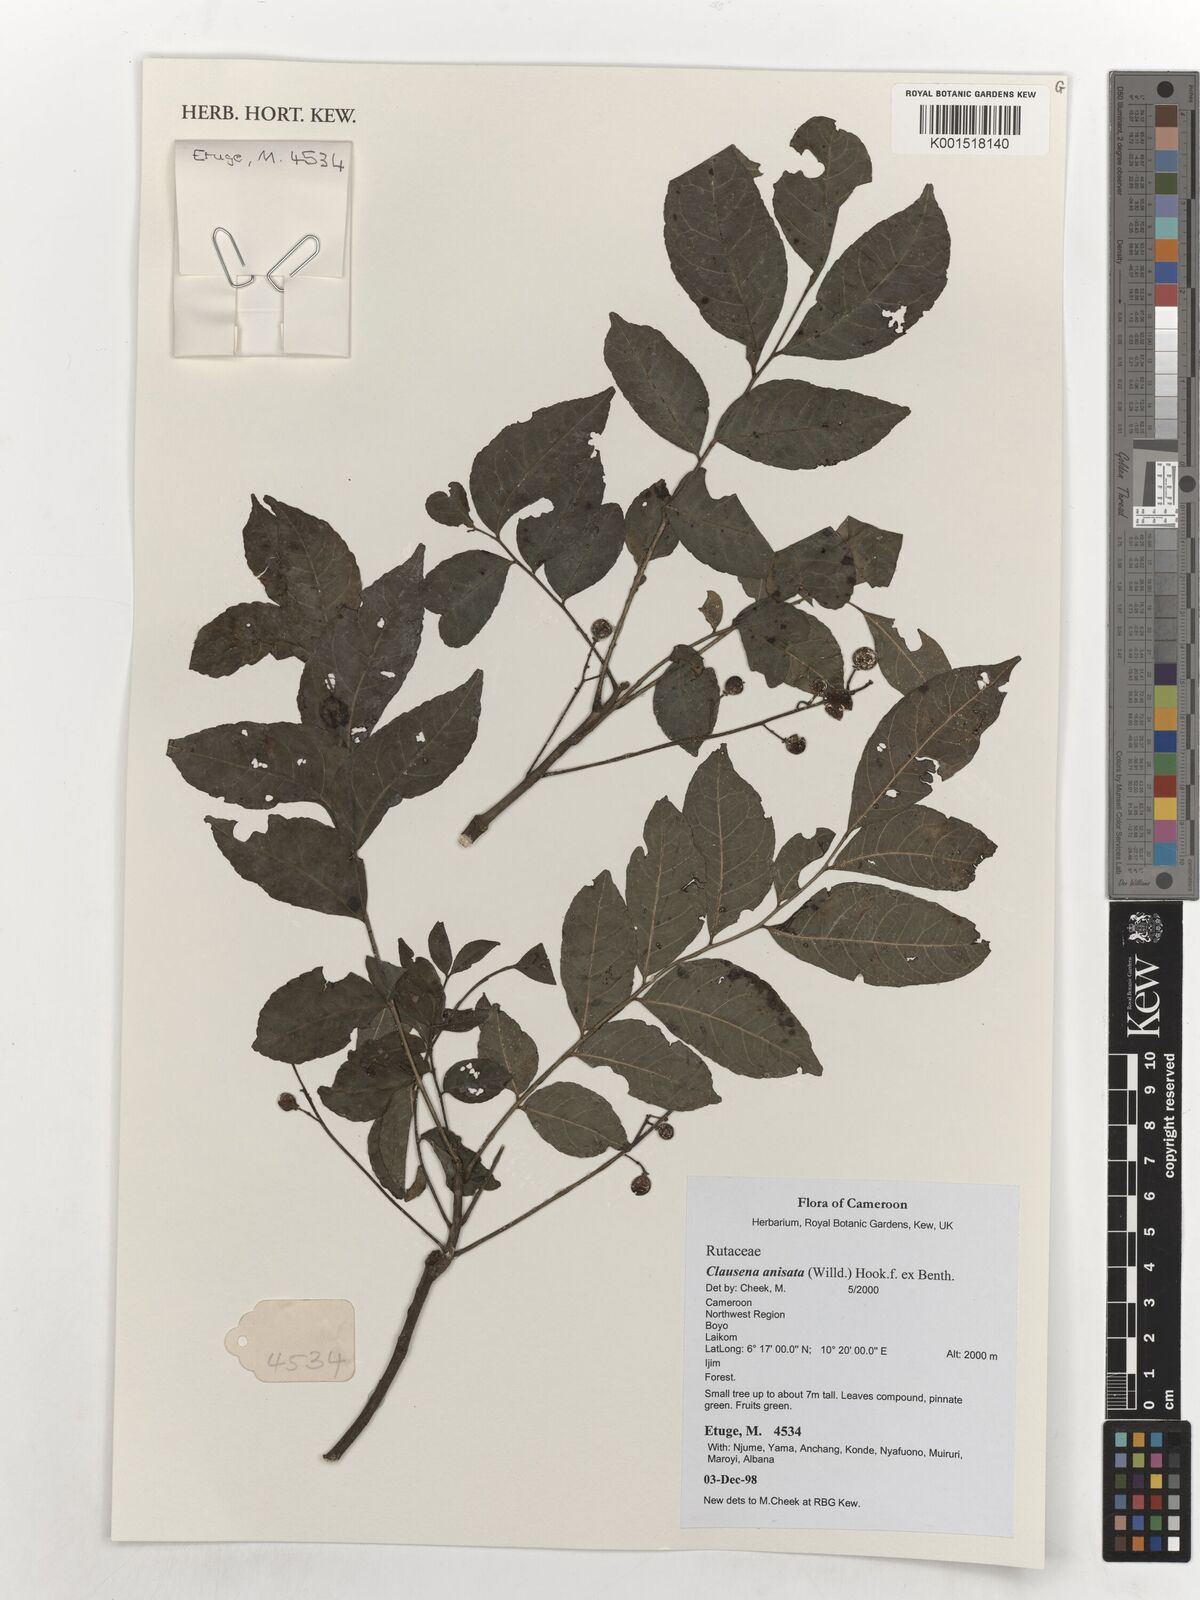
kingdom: Plantae
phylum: Tracheophyta
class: Magnoliopsida
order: Sapindales
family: Rutaceae
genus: Clausena
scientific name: Clausena anisata
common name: Horsewood
